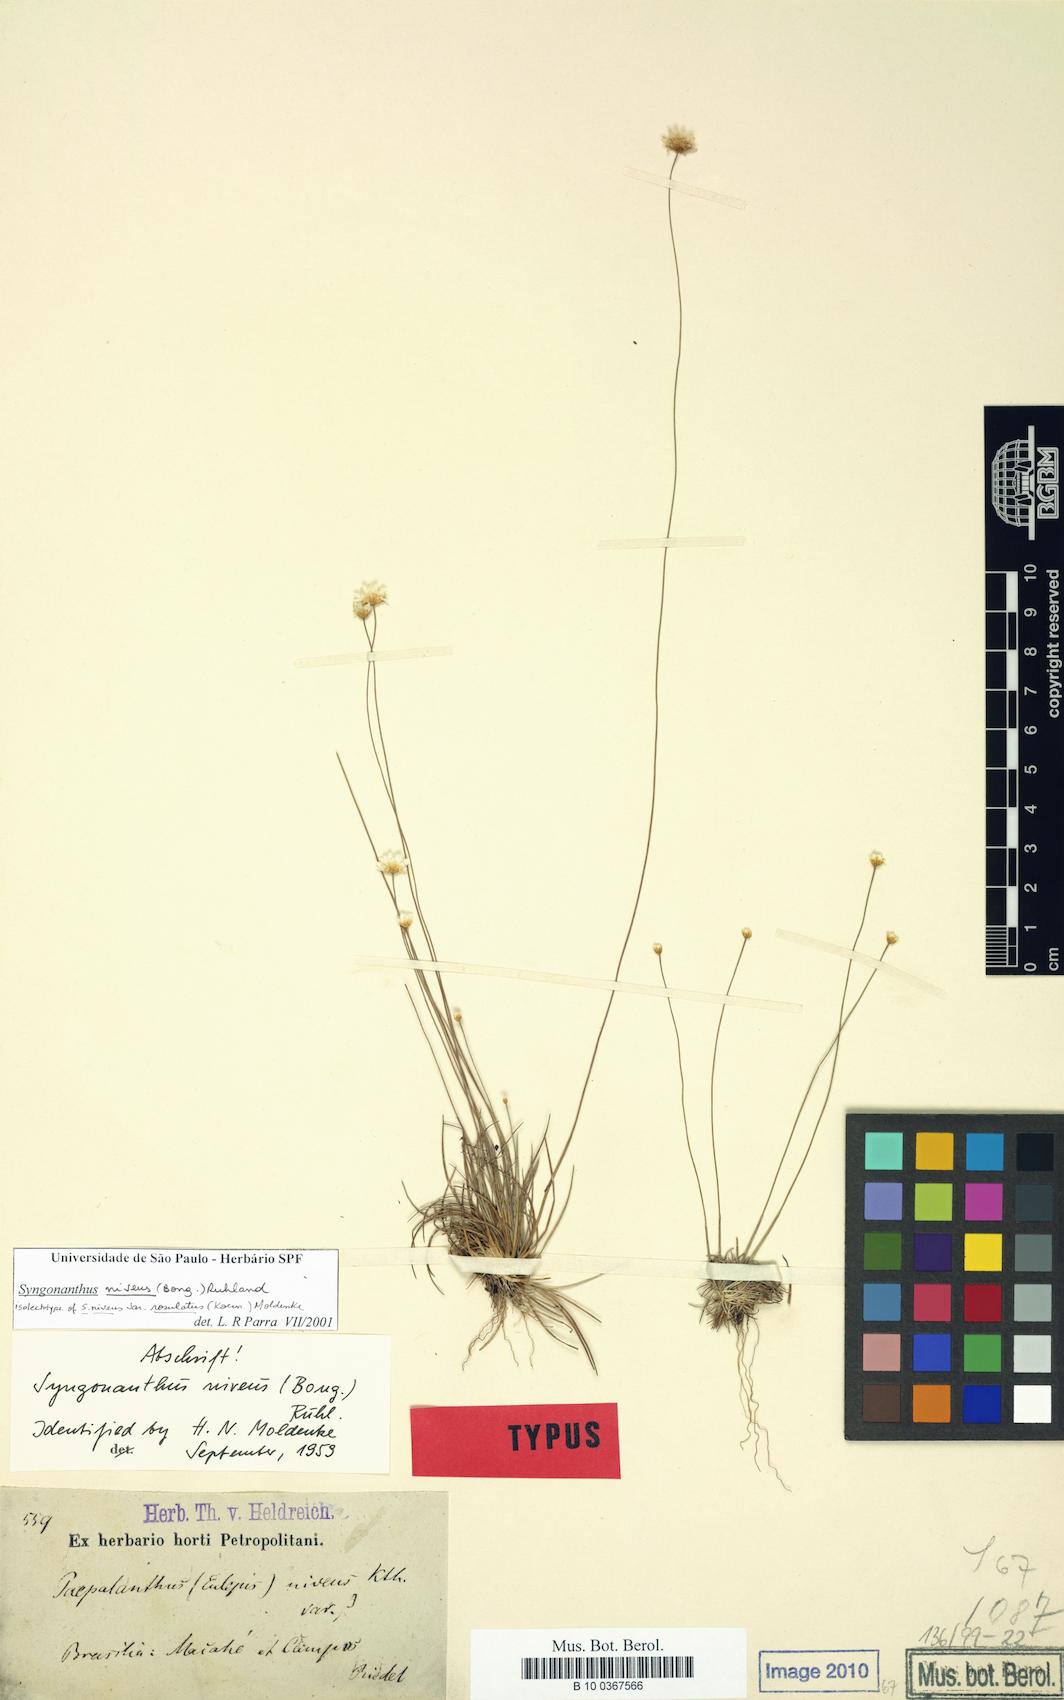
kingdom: Plantae
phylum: Tracheophyta
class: Liliopsida
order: Poales
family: Eriocaulaceae
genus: Comanthera
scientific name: Comanthera nivea
